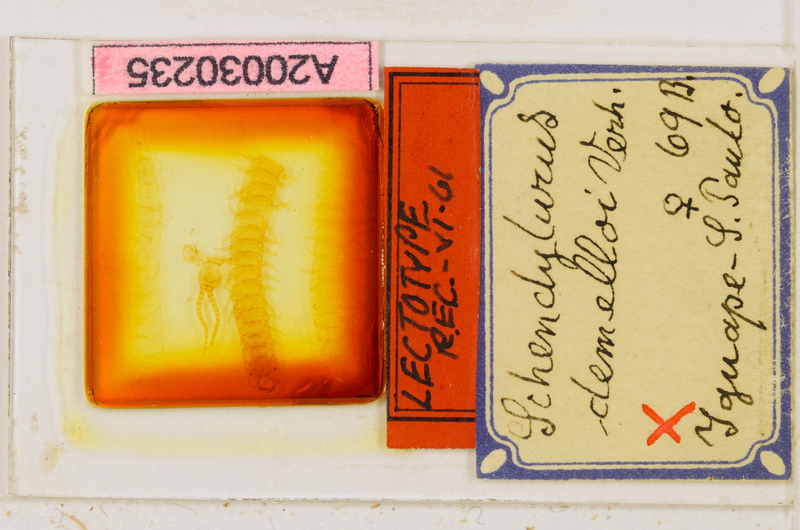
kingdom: Animalia
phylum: Arthropoda
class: Chilopoda
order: Geophilomorpha
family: Schendylidae
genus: Schendyla
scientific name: Schendyla
